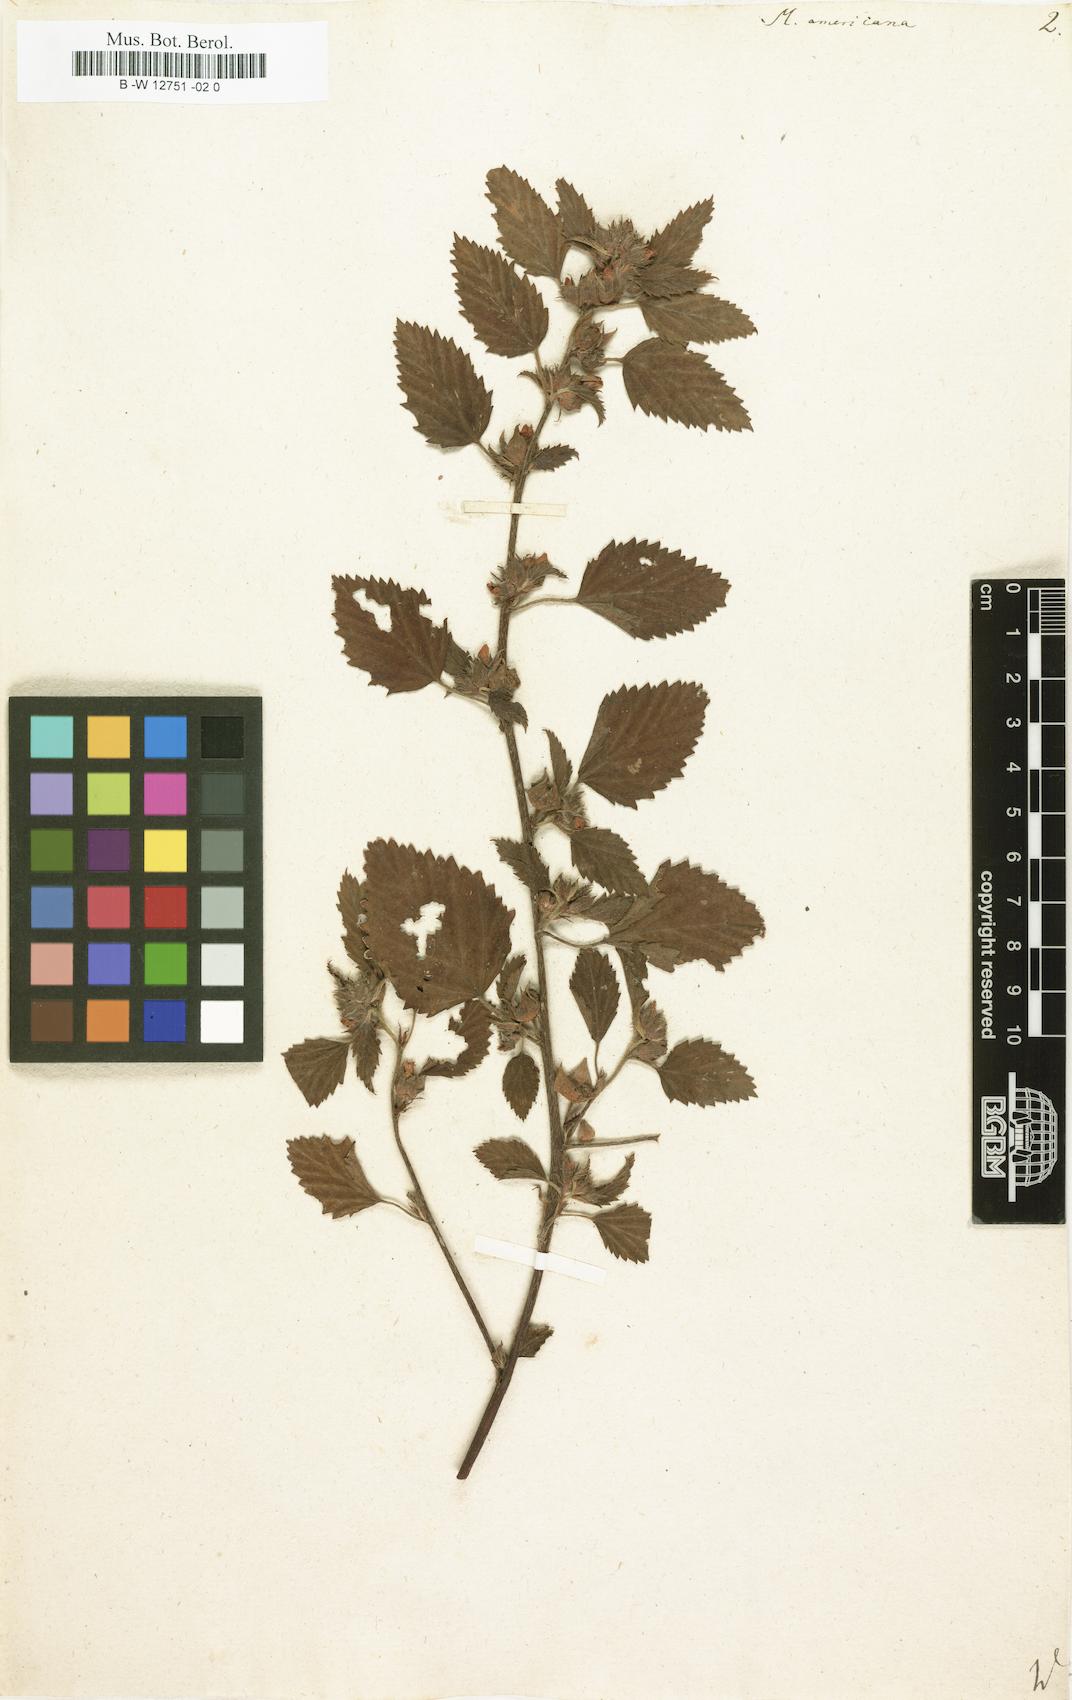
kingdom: Plantae
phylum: Tracheophyta
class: Magnoliopsida
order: Malvales
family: Malvaceae
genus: Malva
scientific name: Malva americana
